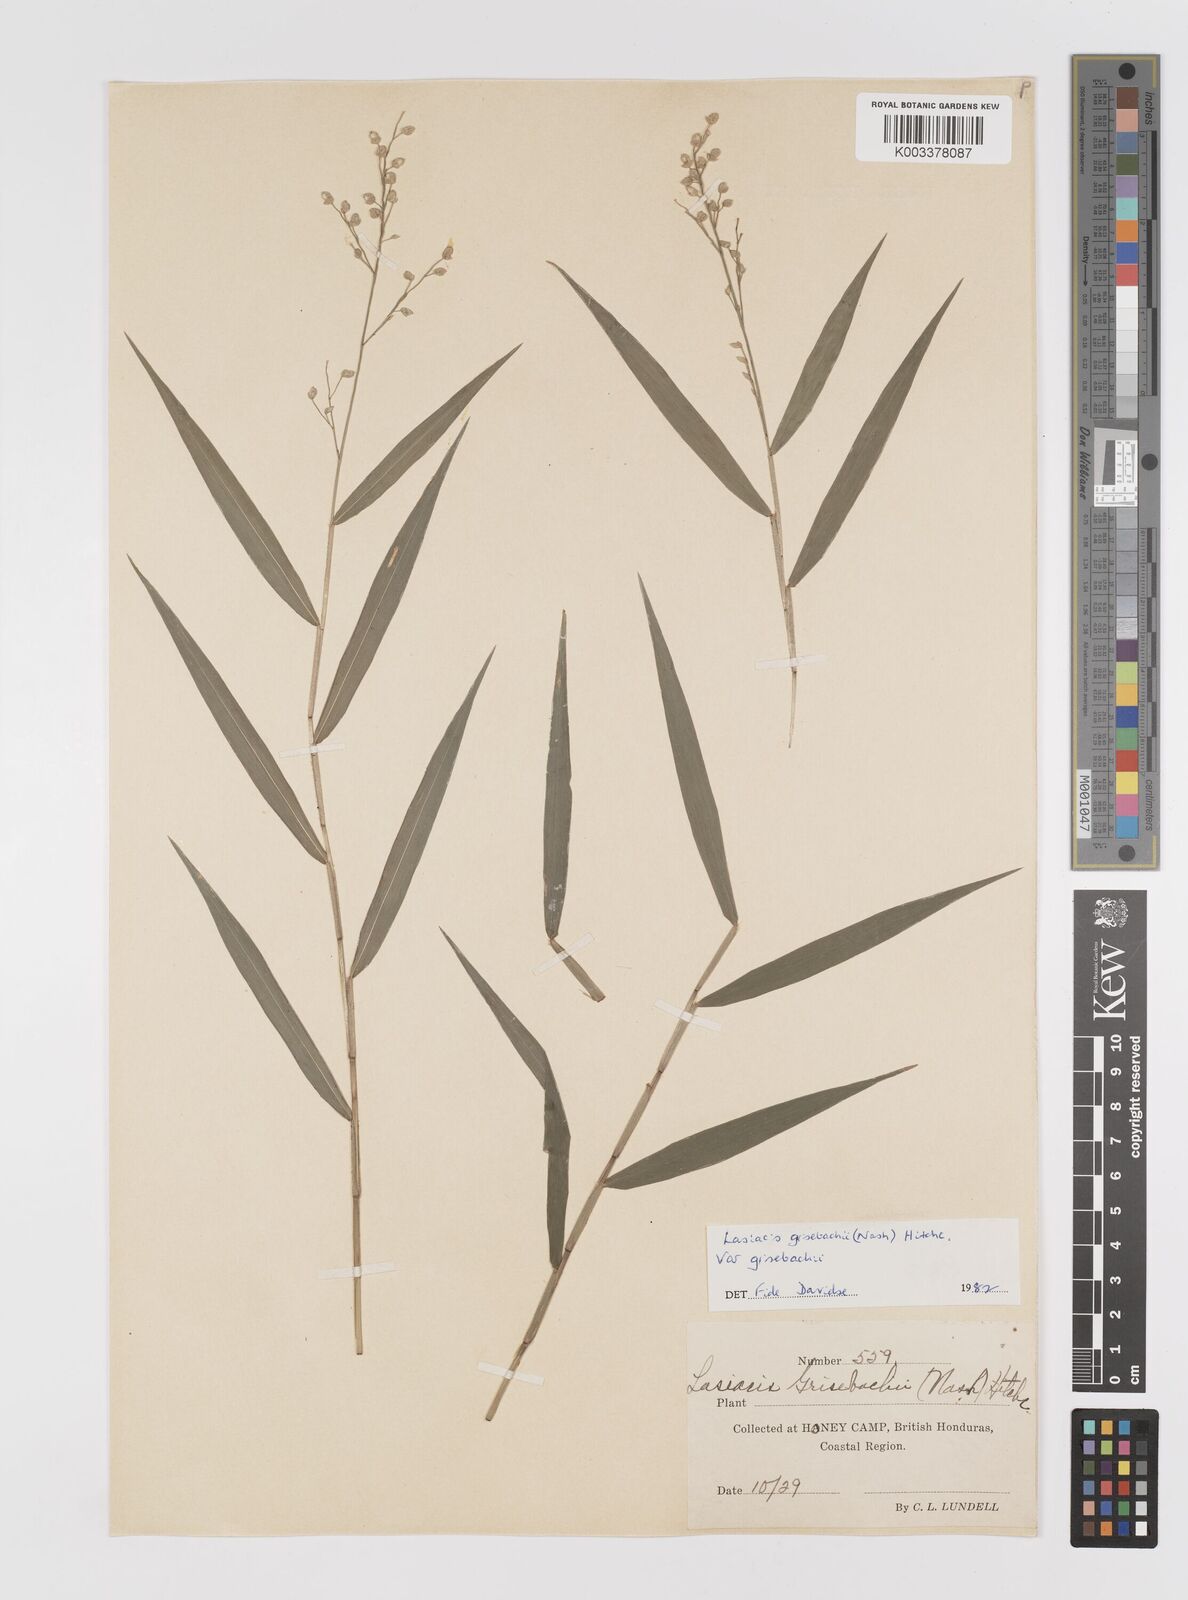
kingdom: Plantae
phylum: Tracheophyta
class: Liliopsida
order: Poales
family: Poaceae
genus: Lasiacis
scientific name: Lasiacis grisebachii
